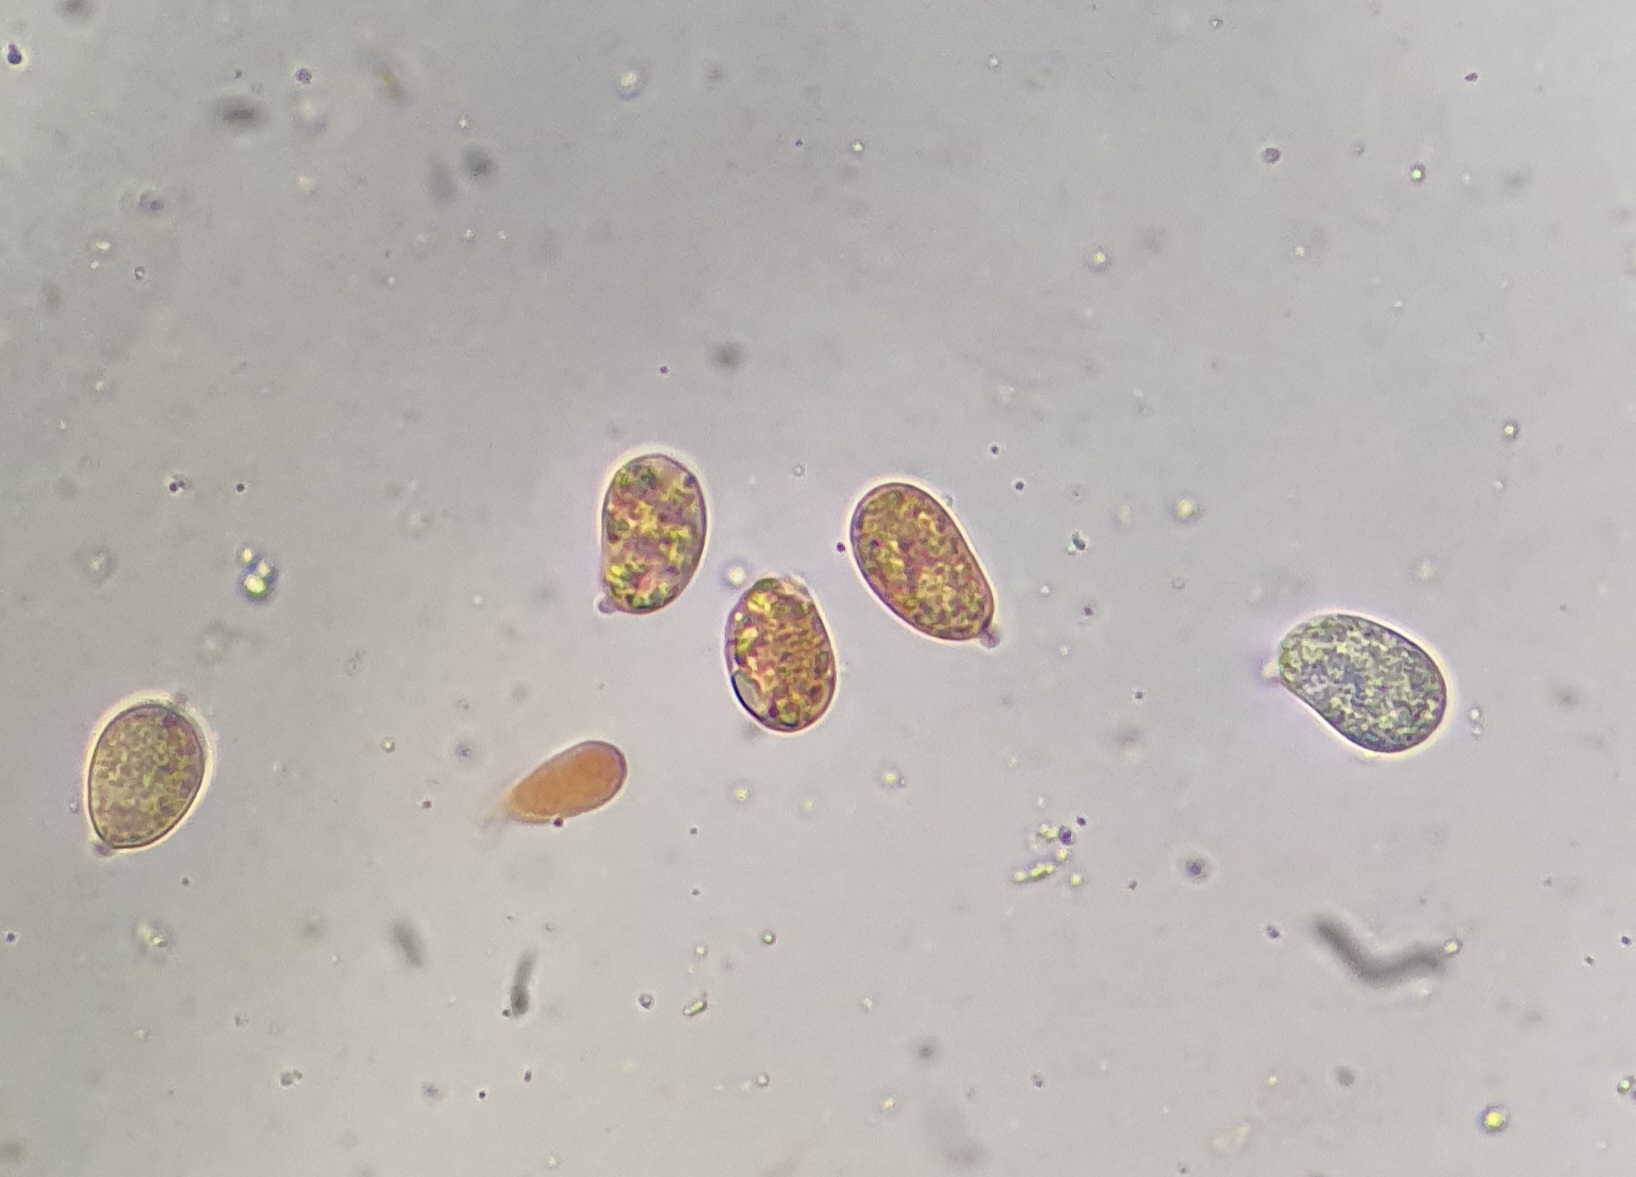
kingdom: Fungi
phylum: Basidiomycota
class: Agaricomycetes
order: Agaricales
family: Hygrophoraceae
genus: Hygrocybe
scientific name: Hygrocybe acutoconica
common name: Konrads vokshat
